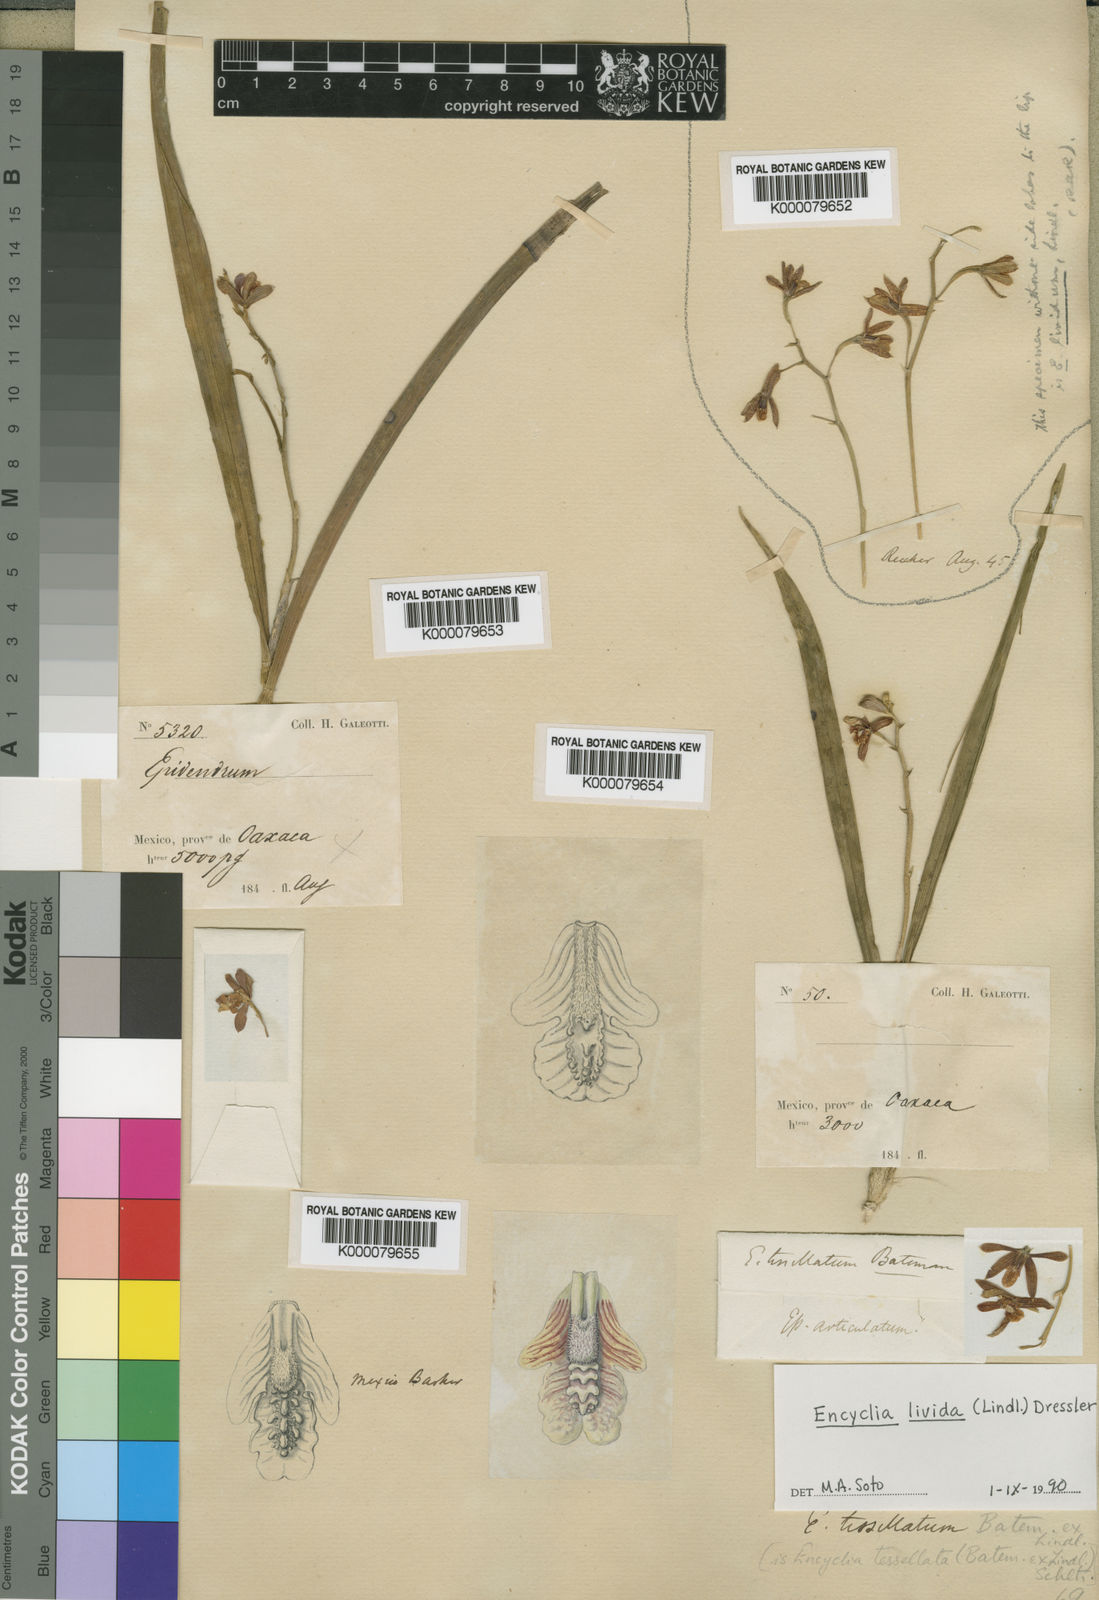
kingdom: Plantae
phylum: Tracheophyta
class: Liliopsida
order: Asparagales
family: Orchidaceae
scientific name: Orchidaceae
